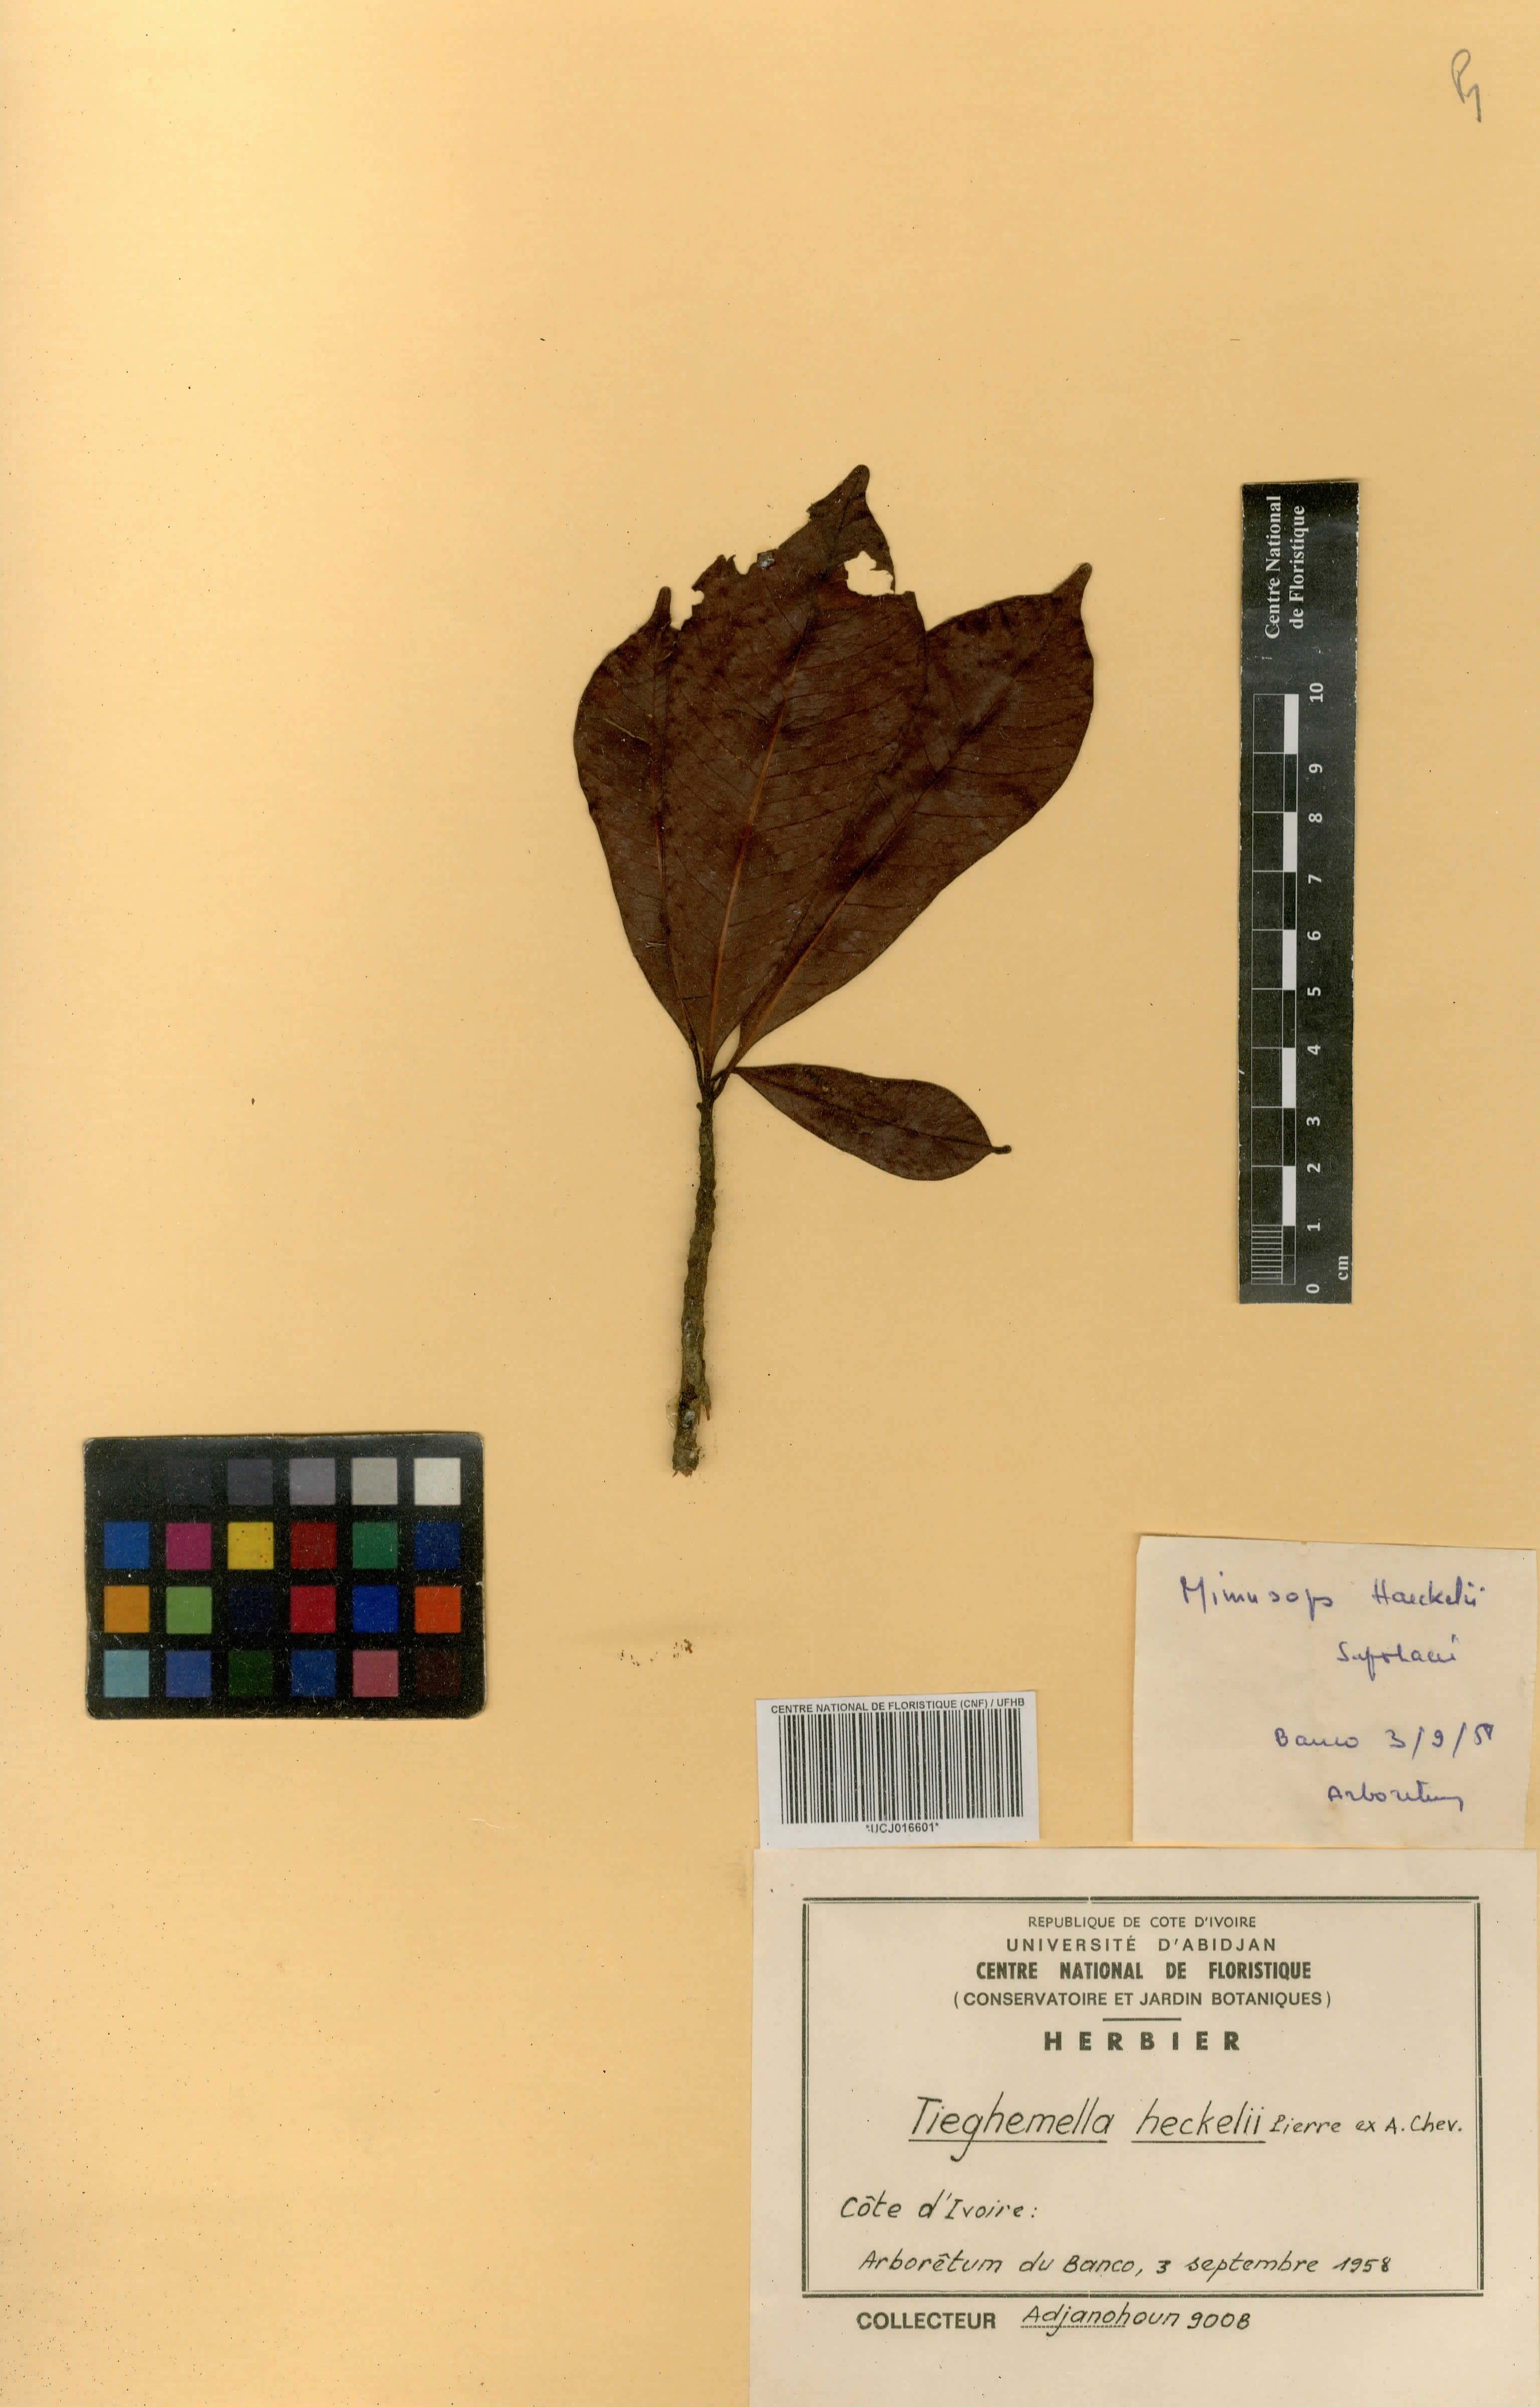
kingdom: Plantae
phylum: Tracheophyta
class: Magnoliopsida
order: Ericales
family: Sapotaceae
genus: Tieghemella
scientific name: Tieghemella heckelii
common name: Cherry mahogany
